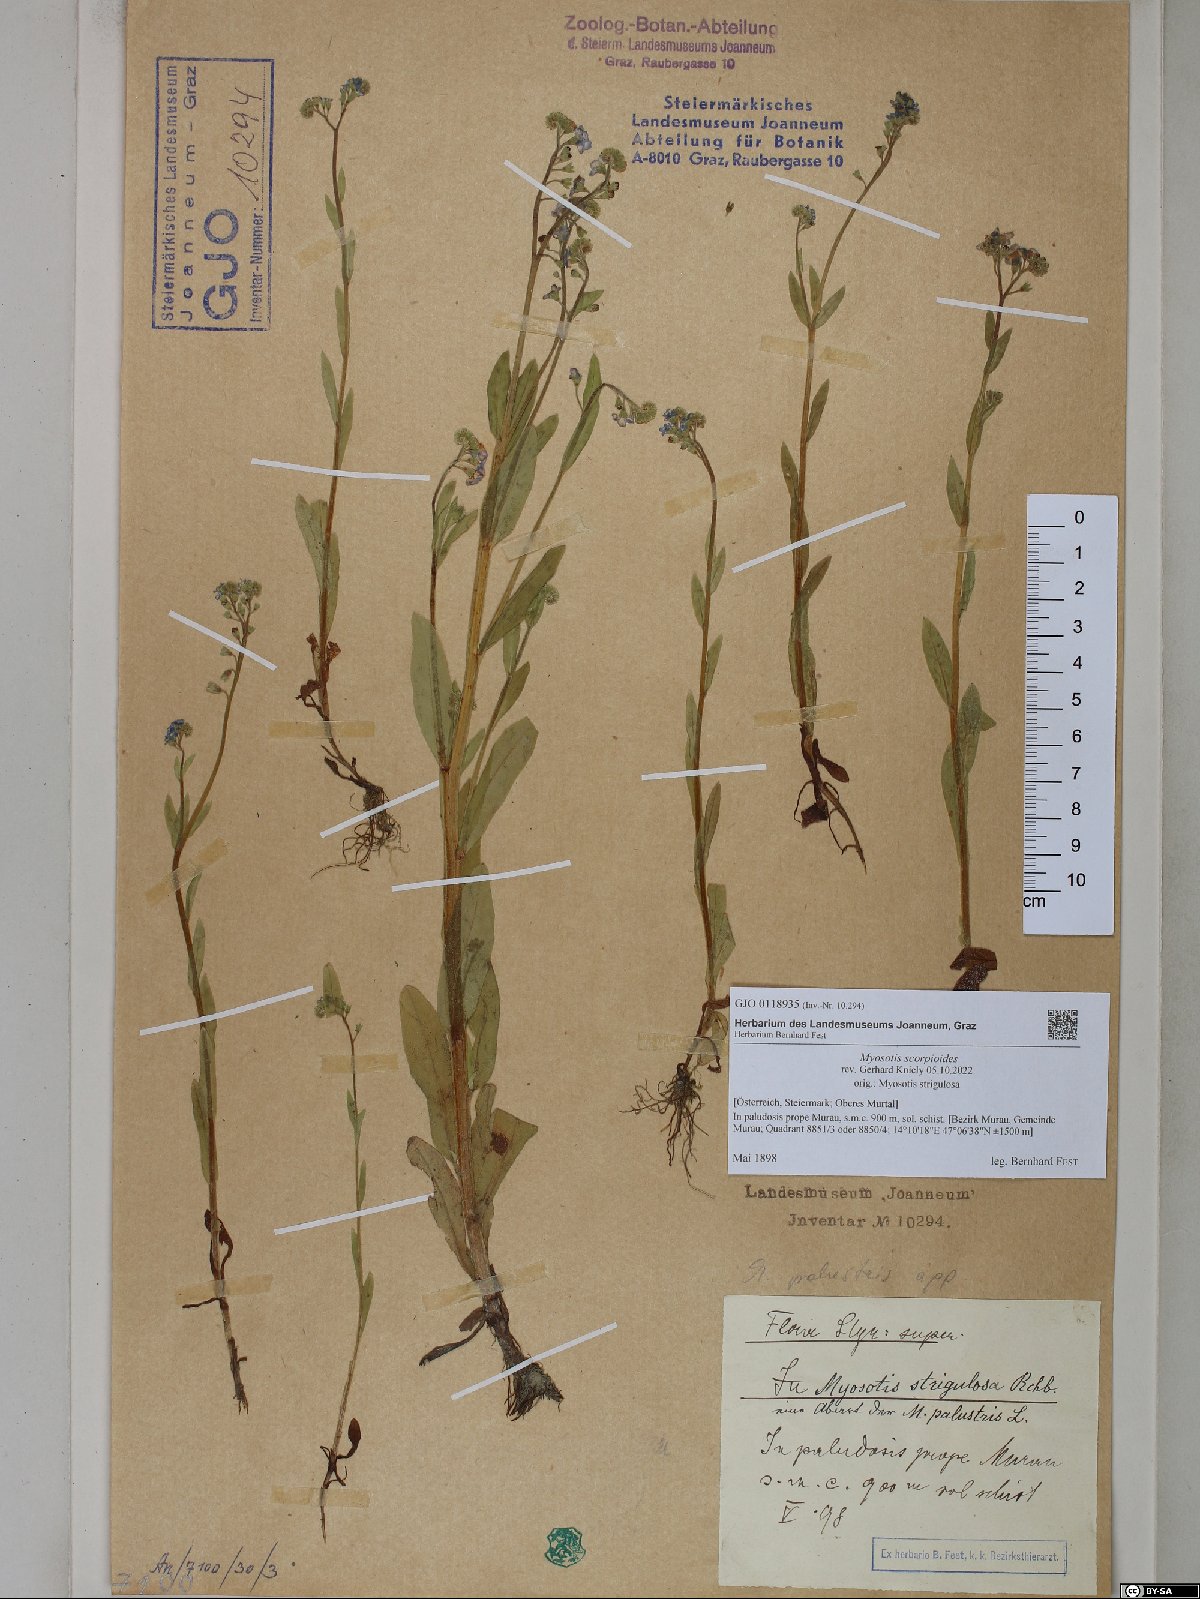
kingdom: Plantae
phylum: Tracheophyta
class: Magnoliopsida
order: Boraginales
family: Boraginaceae
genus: Myosotis
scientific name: Myosotis scorpioides
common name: Water forget-me-not
